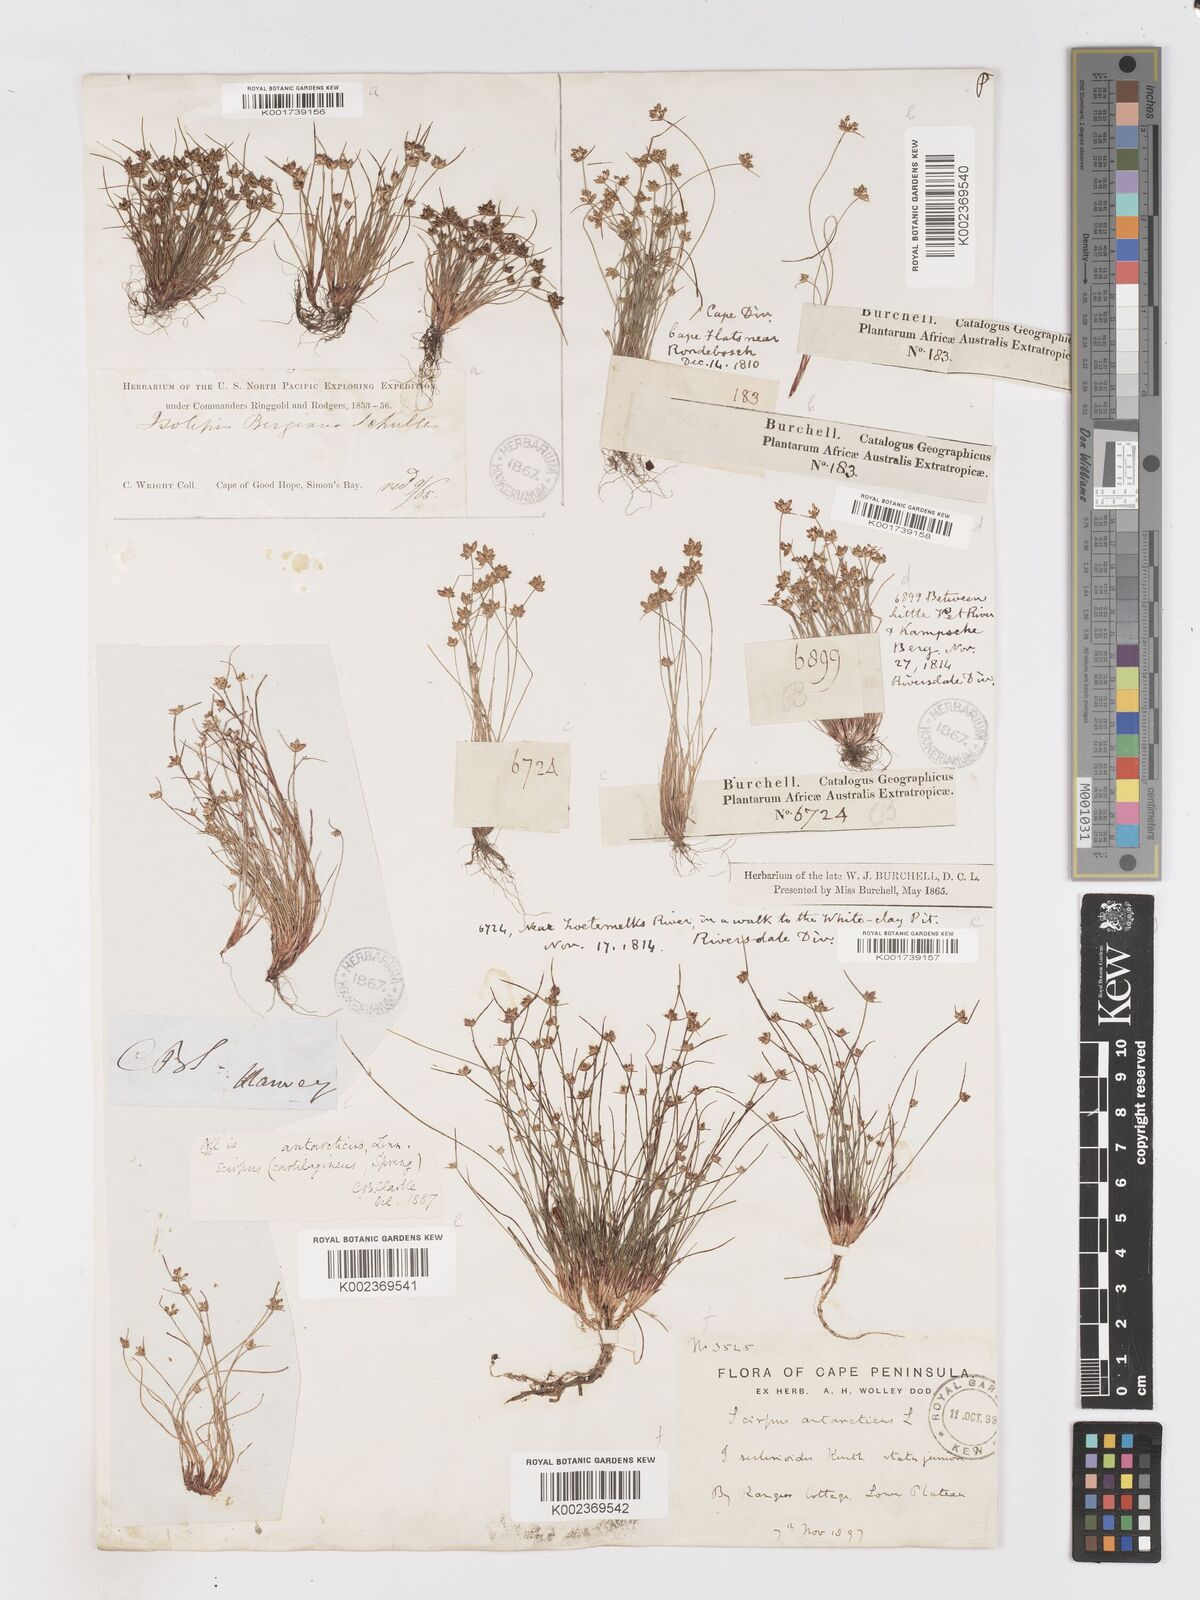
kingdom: Plantae
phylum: Tracheophyta
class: Liliopsida
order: Poales
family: Cyperaceae
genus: Isolepis
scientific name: Isolepis marginata
